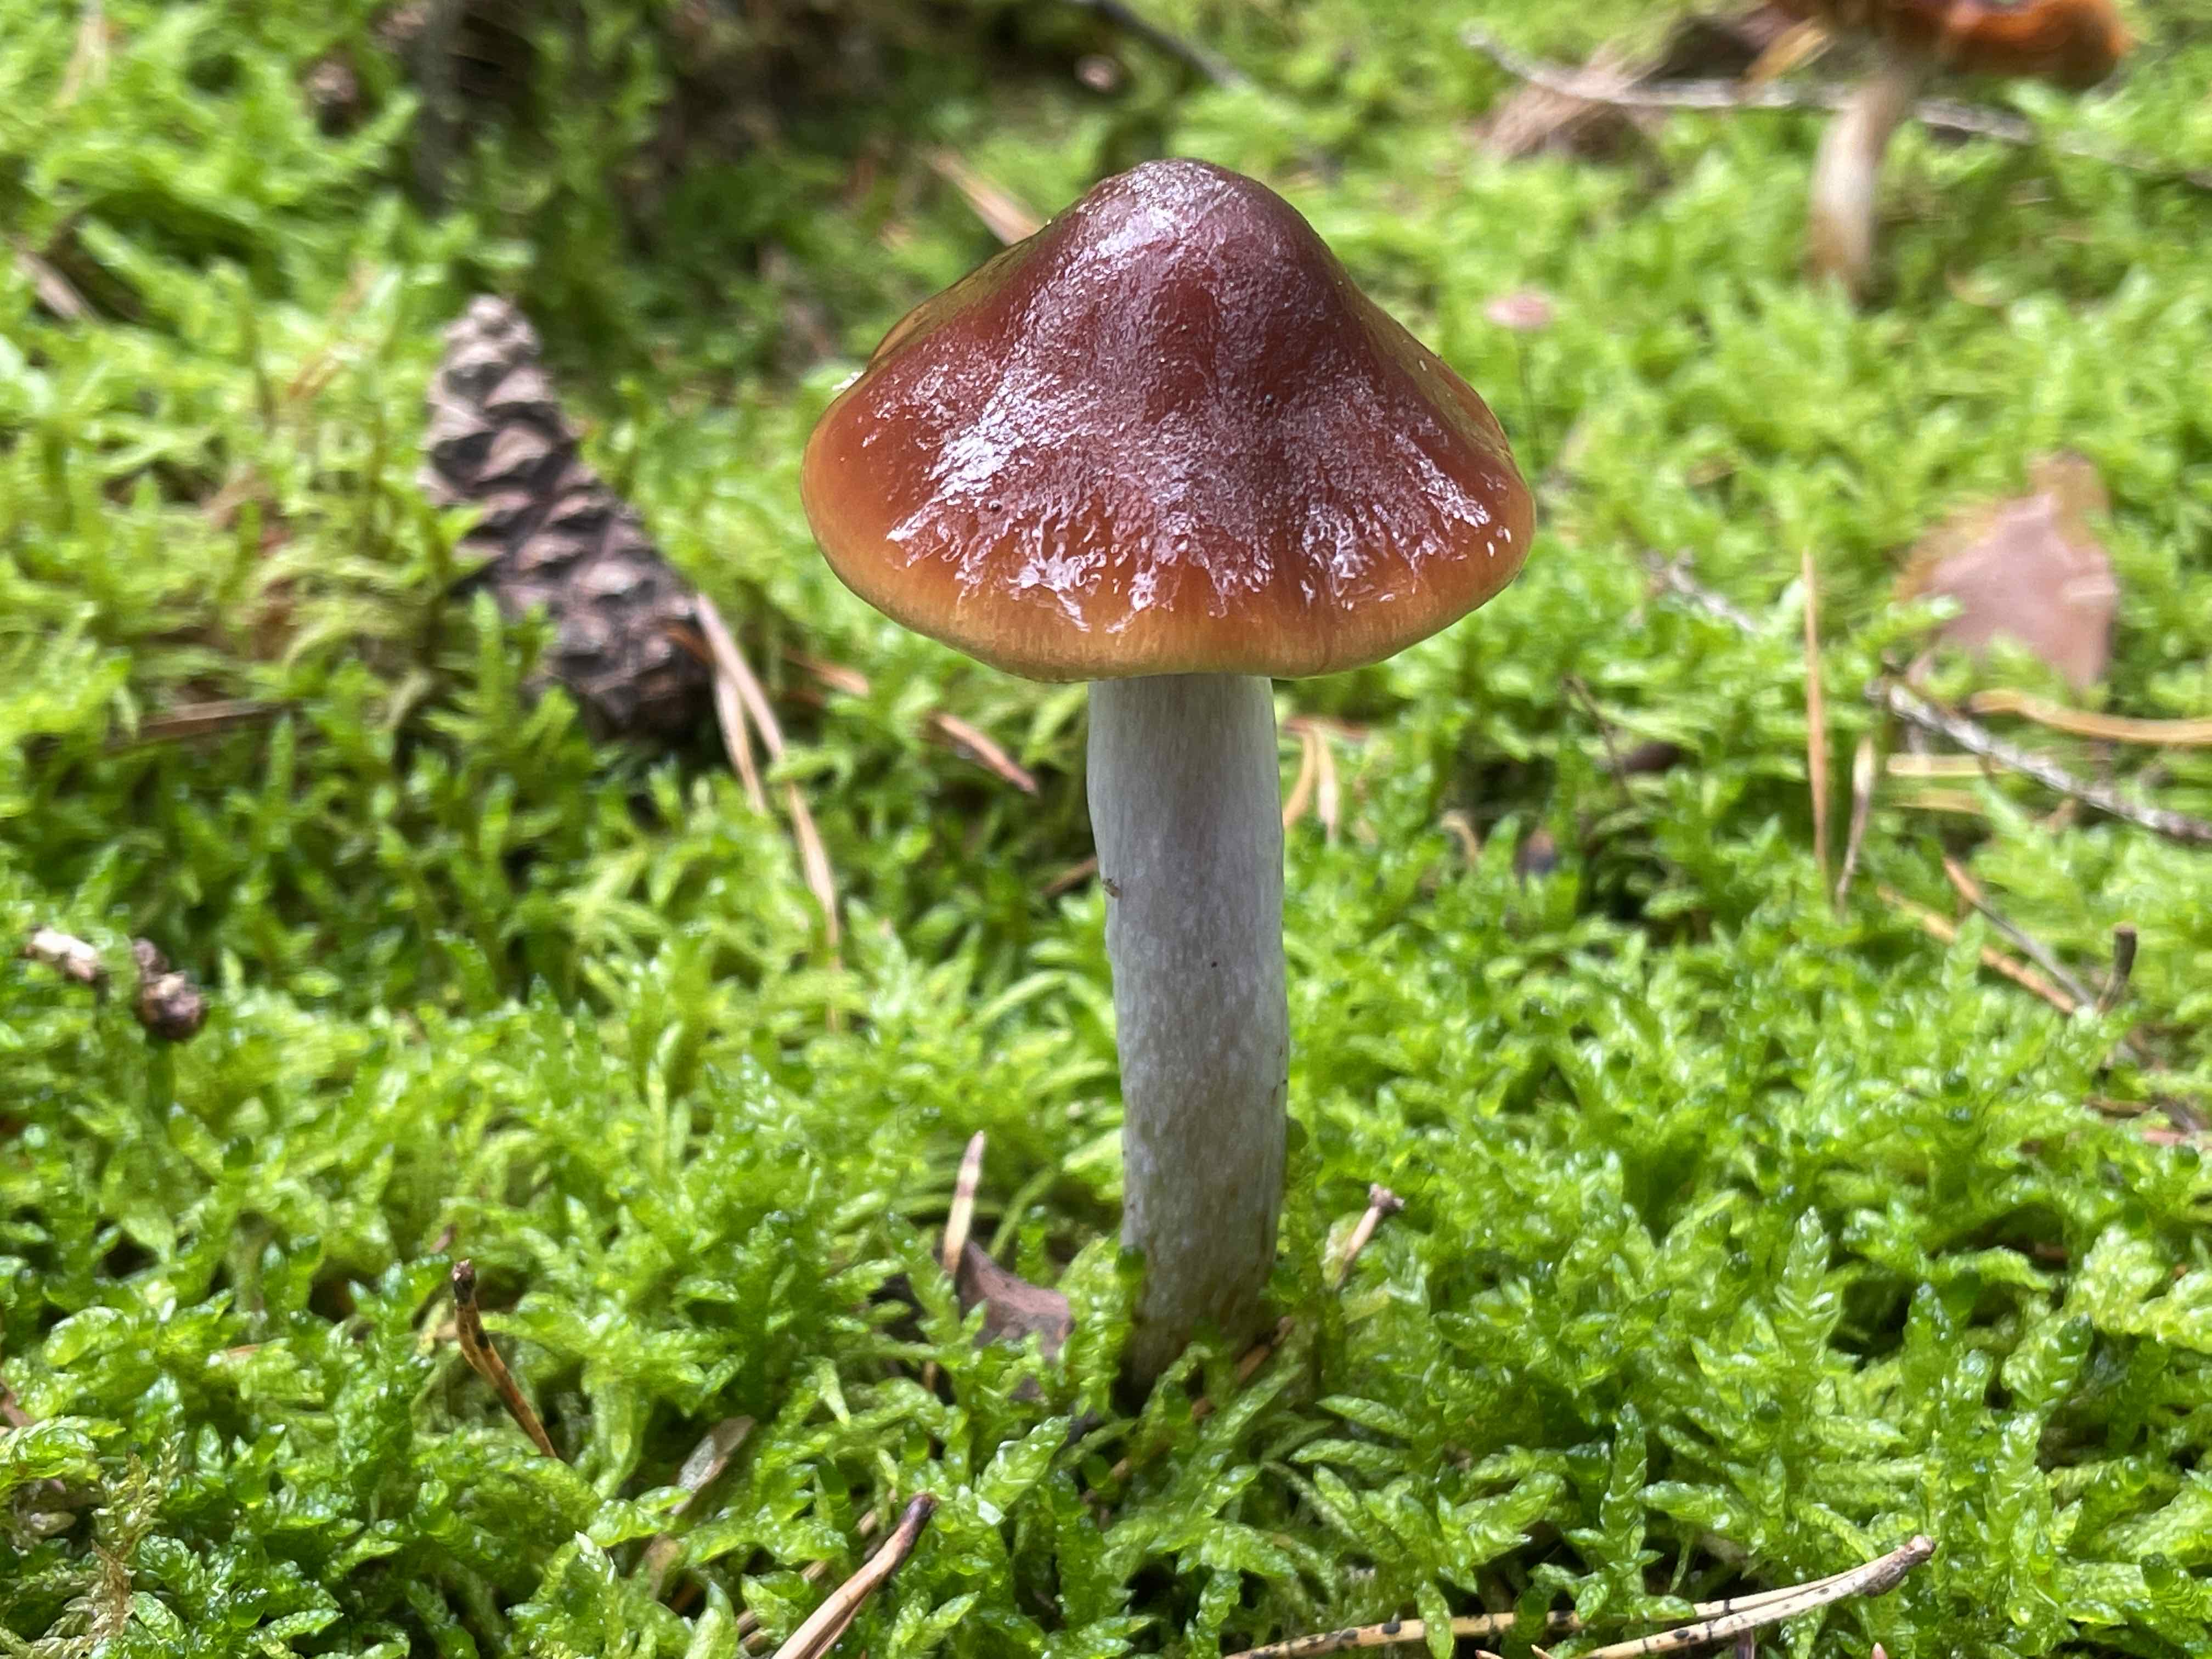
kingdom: Fungi
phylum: Basidiomycota
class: Agaricomycetes
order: Agaricales
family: Cortinariaceae
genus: Cortinarius
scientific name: Cortinarius collinitus
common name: spættet slørhat
